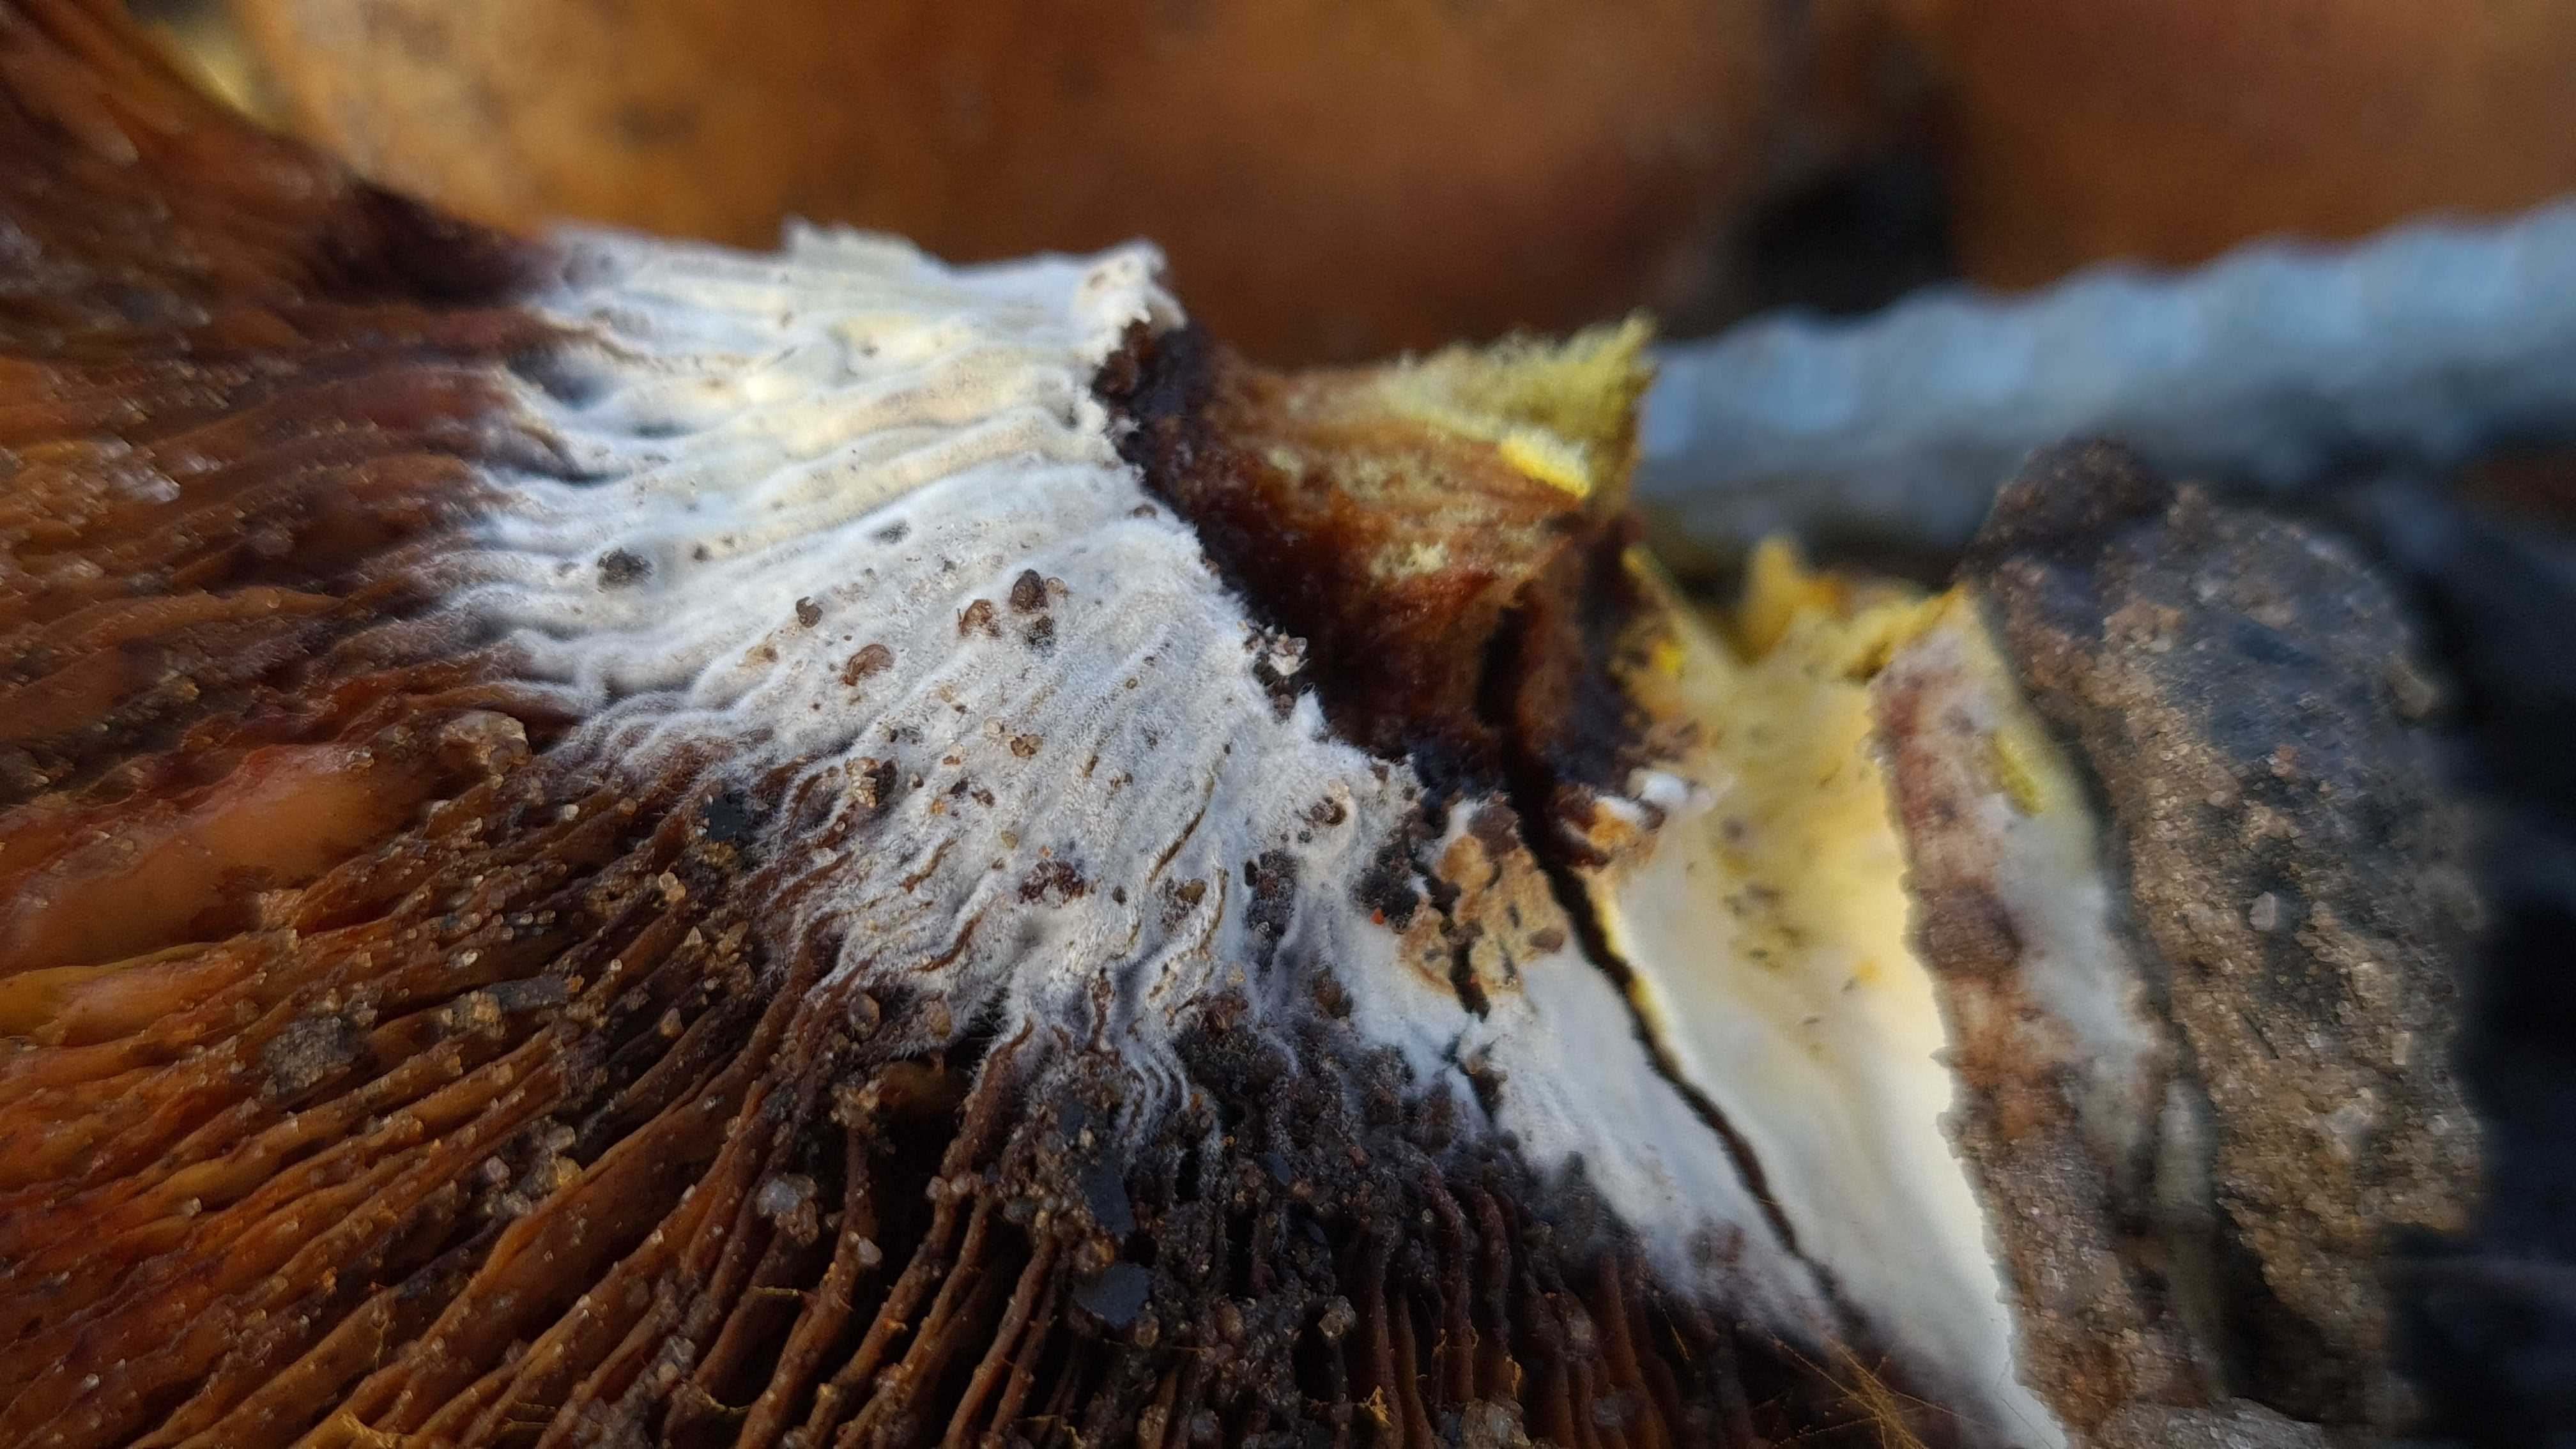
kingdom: Fungi
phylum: Ascomycota
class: Sordariomycetes
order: Hypocreales
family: Hypocreaceae
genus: Hypomyces
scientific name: Hypomyces
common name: snylteskorpe
